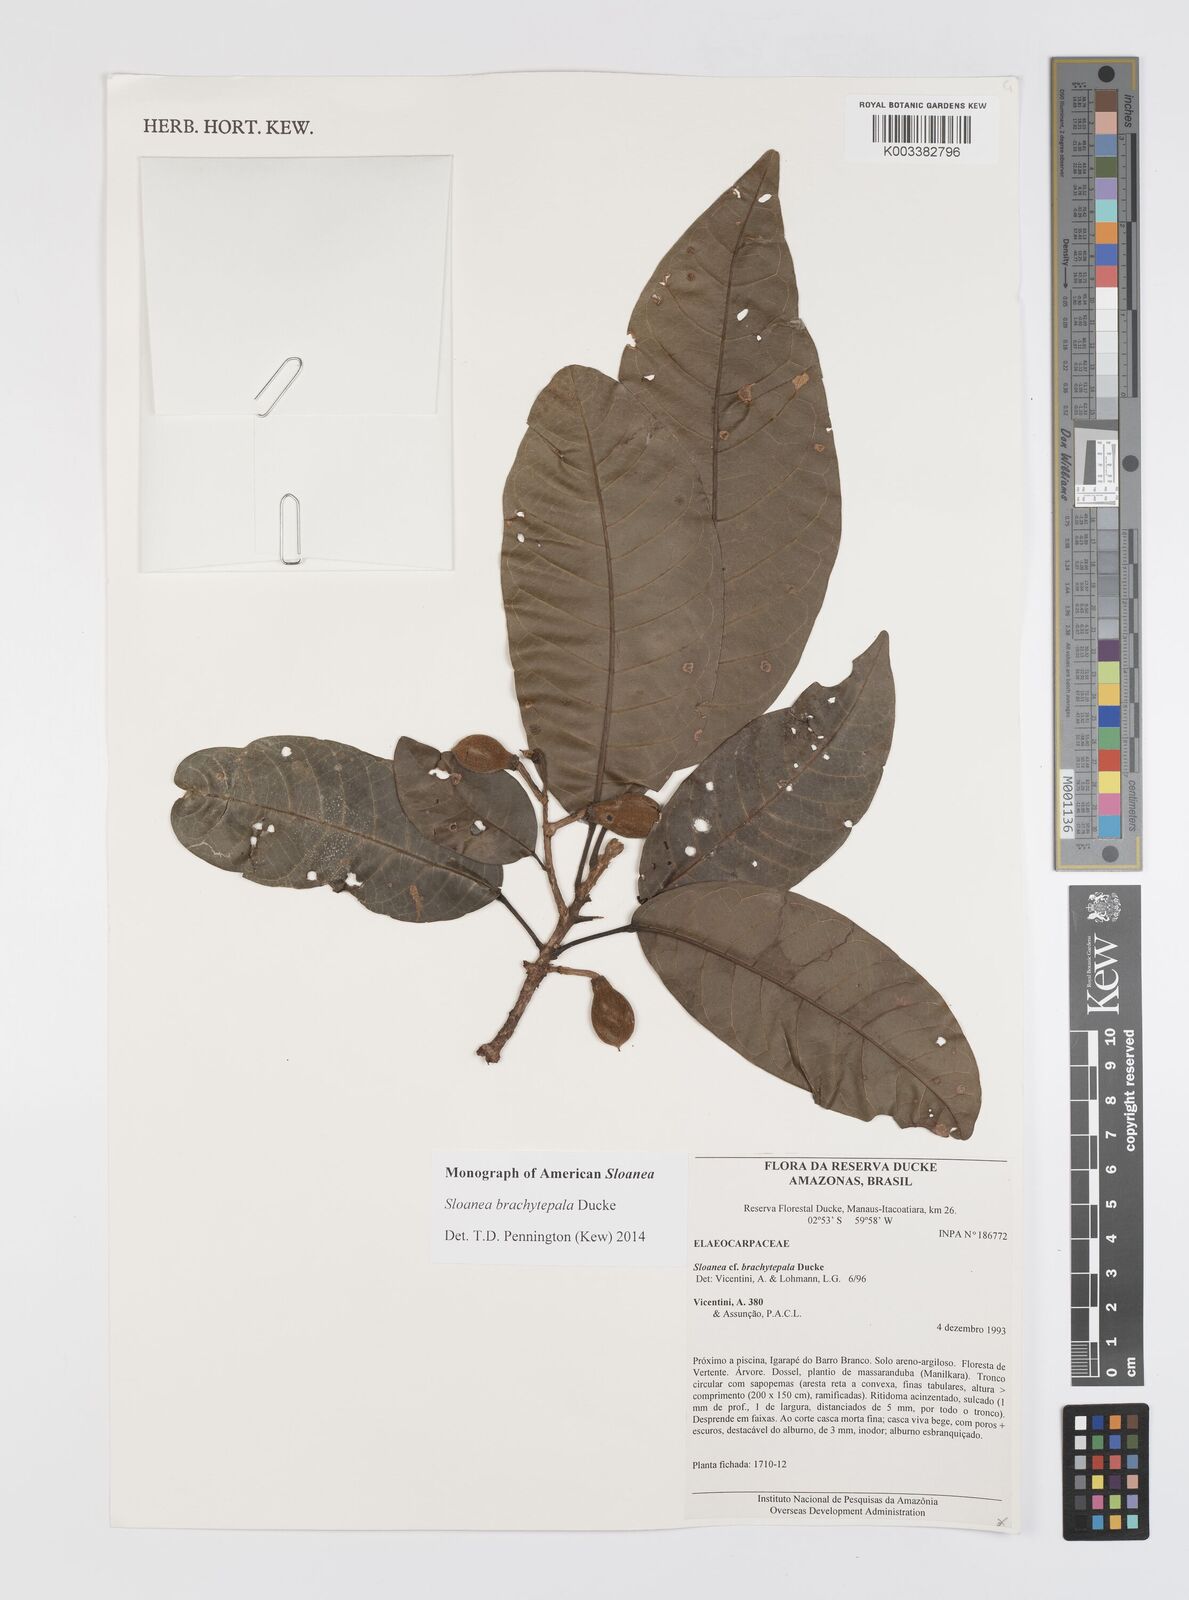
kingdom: Plantae
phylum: Tracheophyta
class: Magnoliopsida
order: Oxalidales
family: Elaeocarpaceae
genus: Sloanea
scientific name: Sloanea brachytepala
